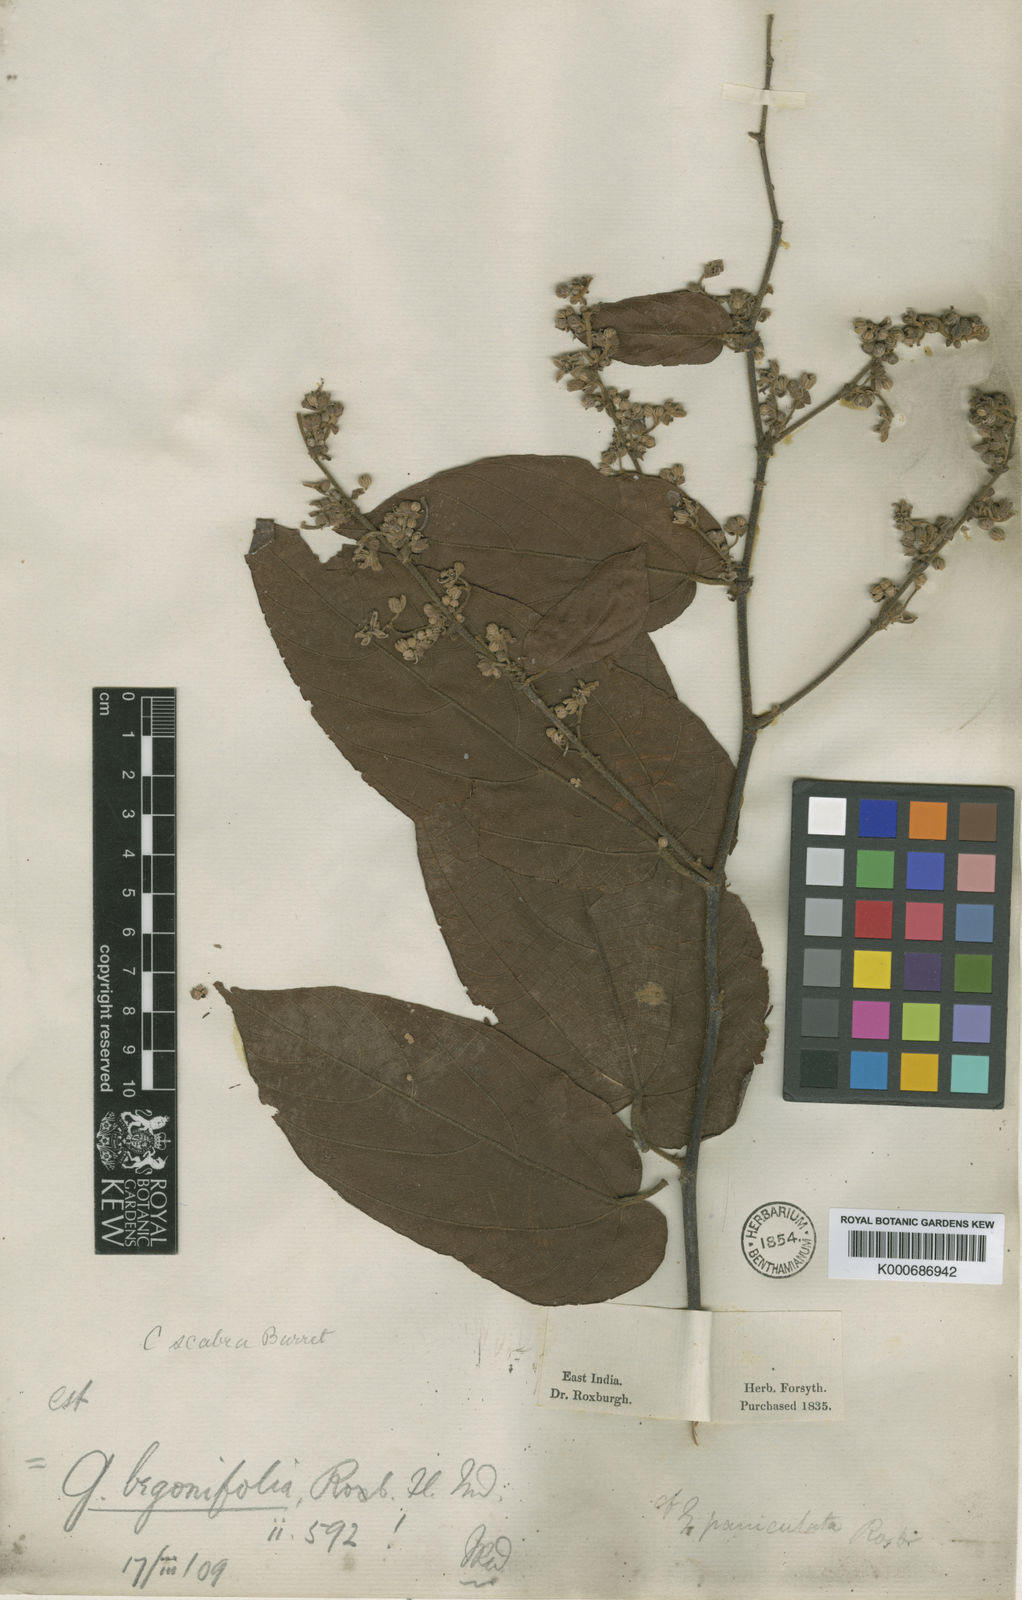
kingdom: Plantae
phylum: Tracheophyta
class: Magnoliopsida
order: Malvales
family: Malvaceae
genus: Colona
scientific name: Colona scabra
